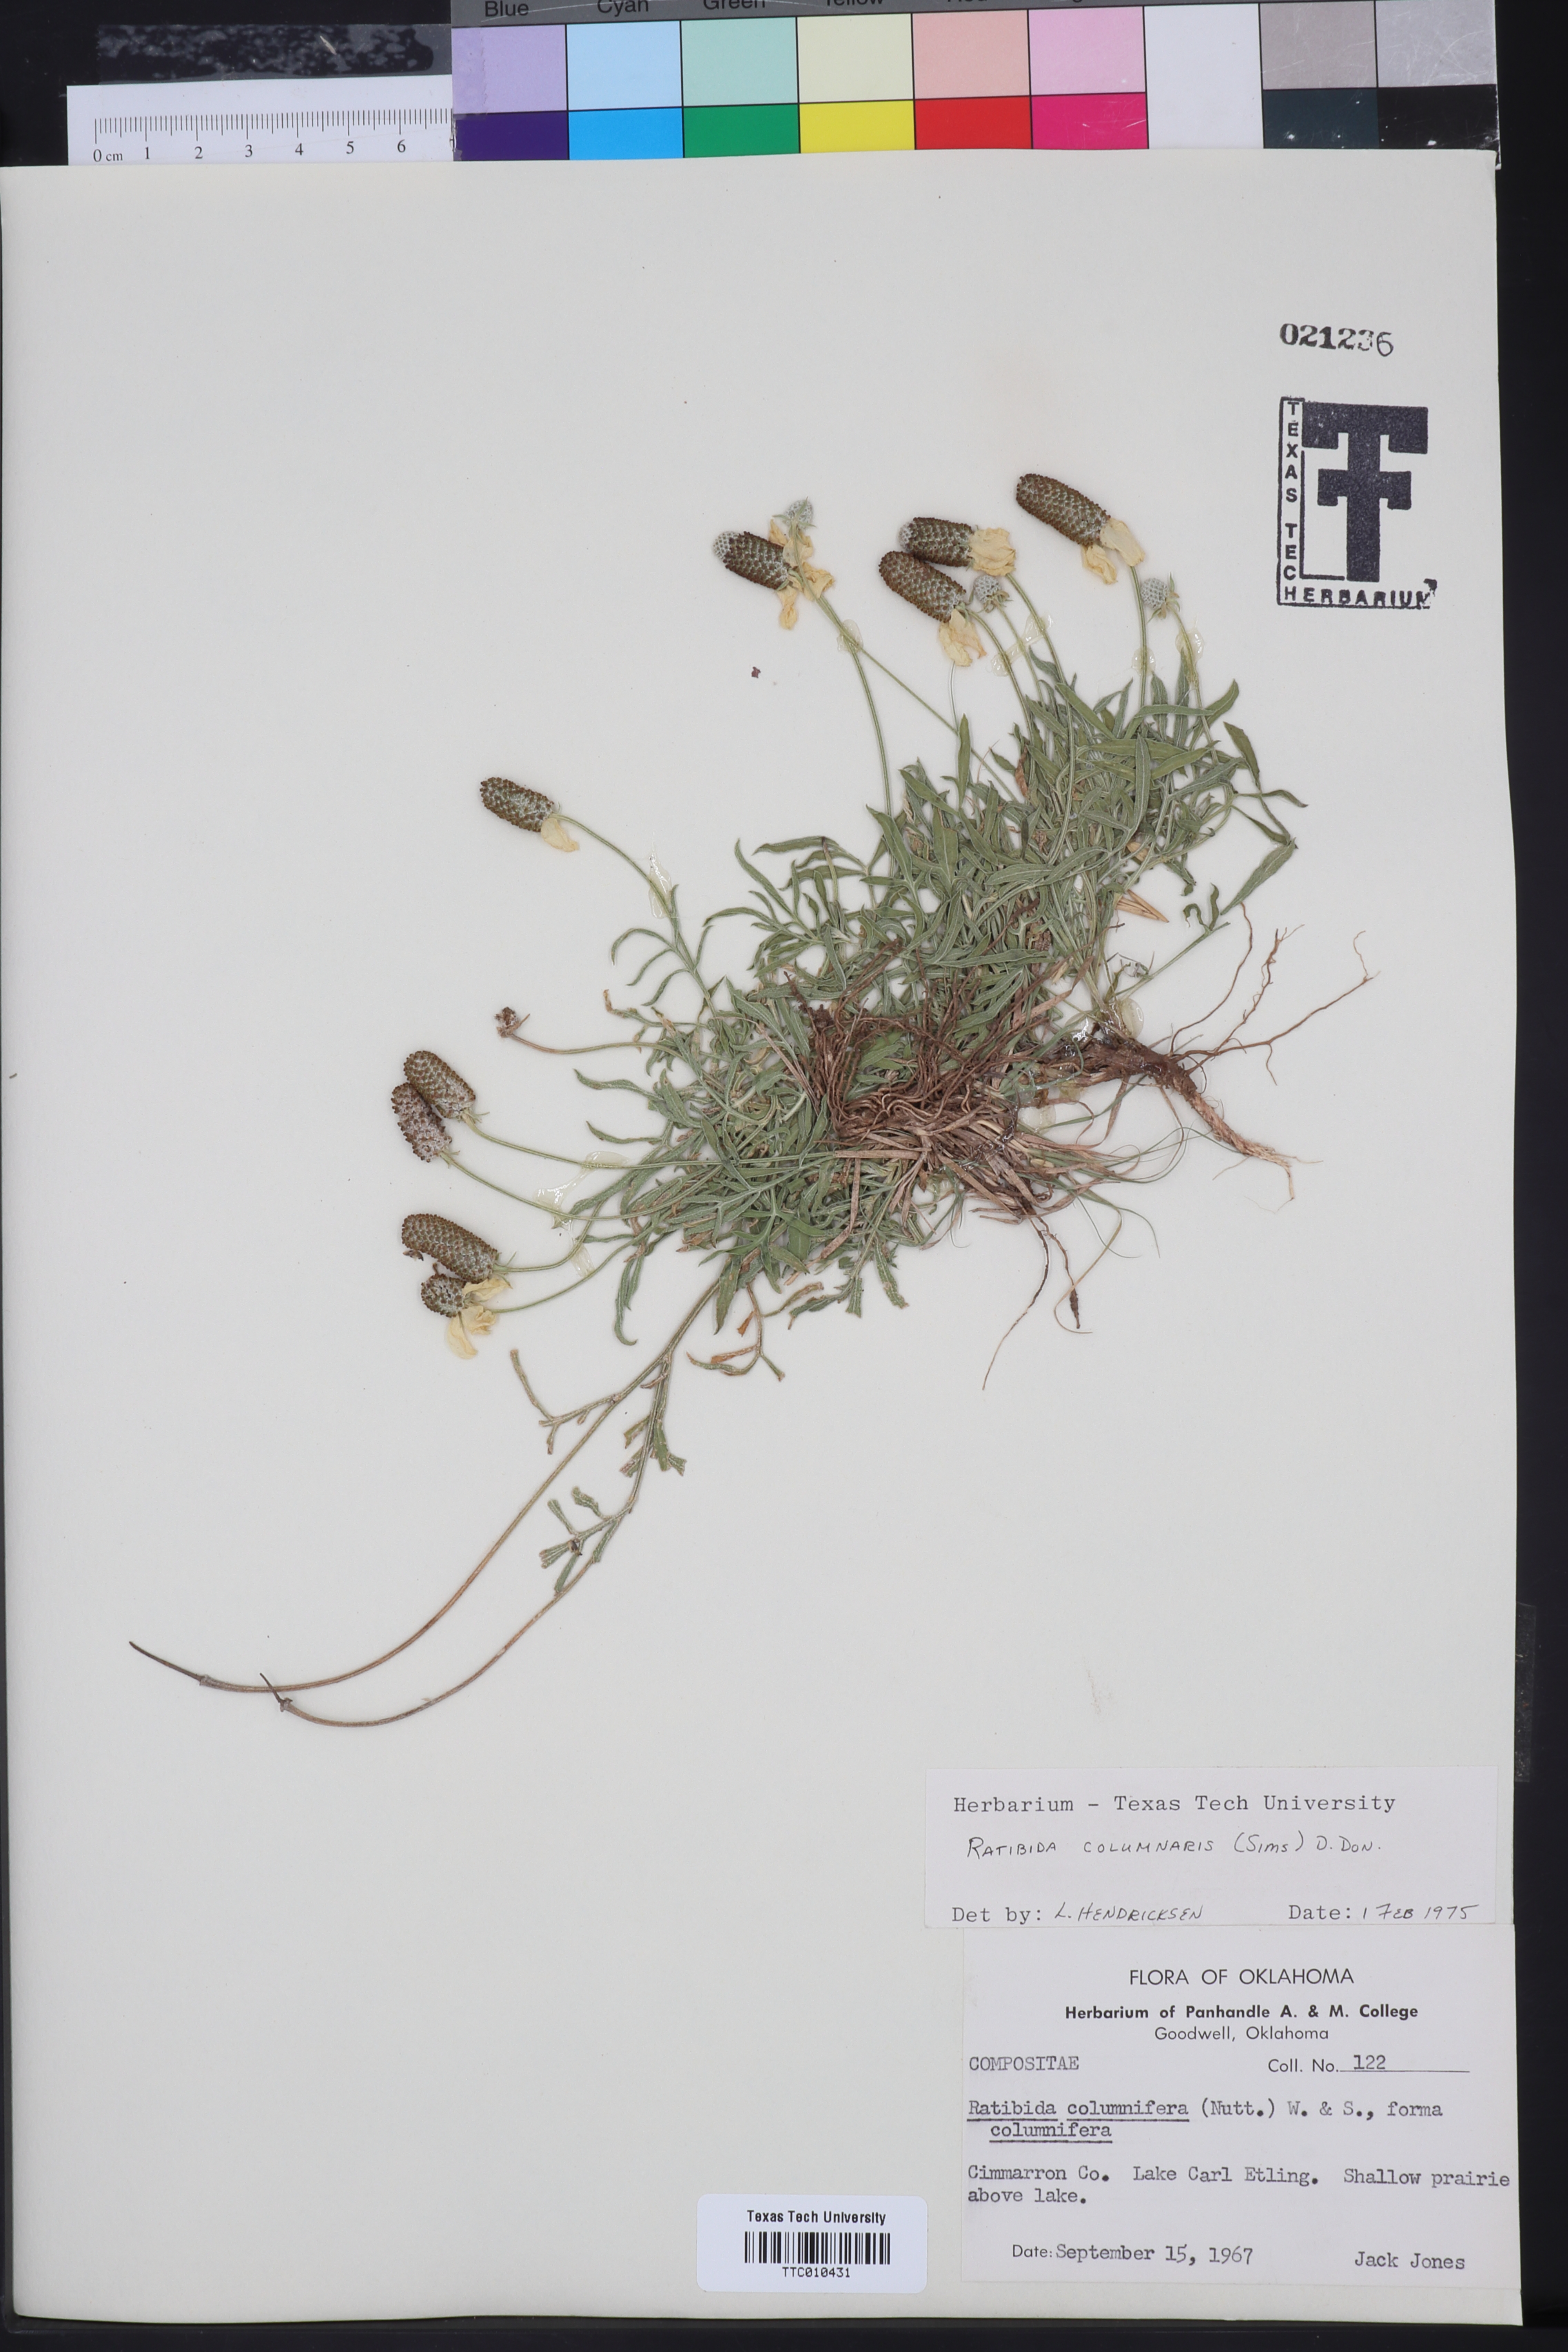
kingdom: Plantae
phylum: Tracheophyta
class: Magnoliopsida
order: Asterales
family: Asteraceae
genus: Ratibida
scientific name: Ratibida columnifera
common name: Prairie coneflower
